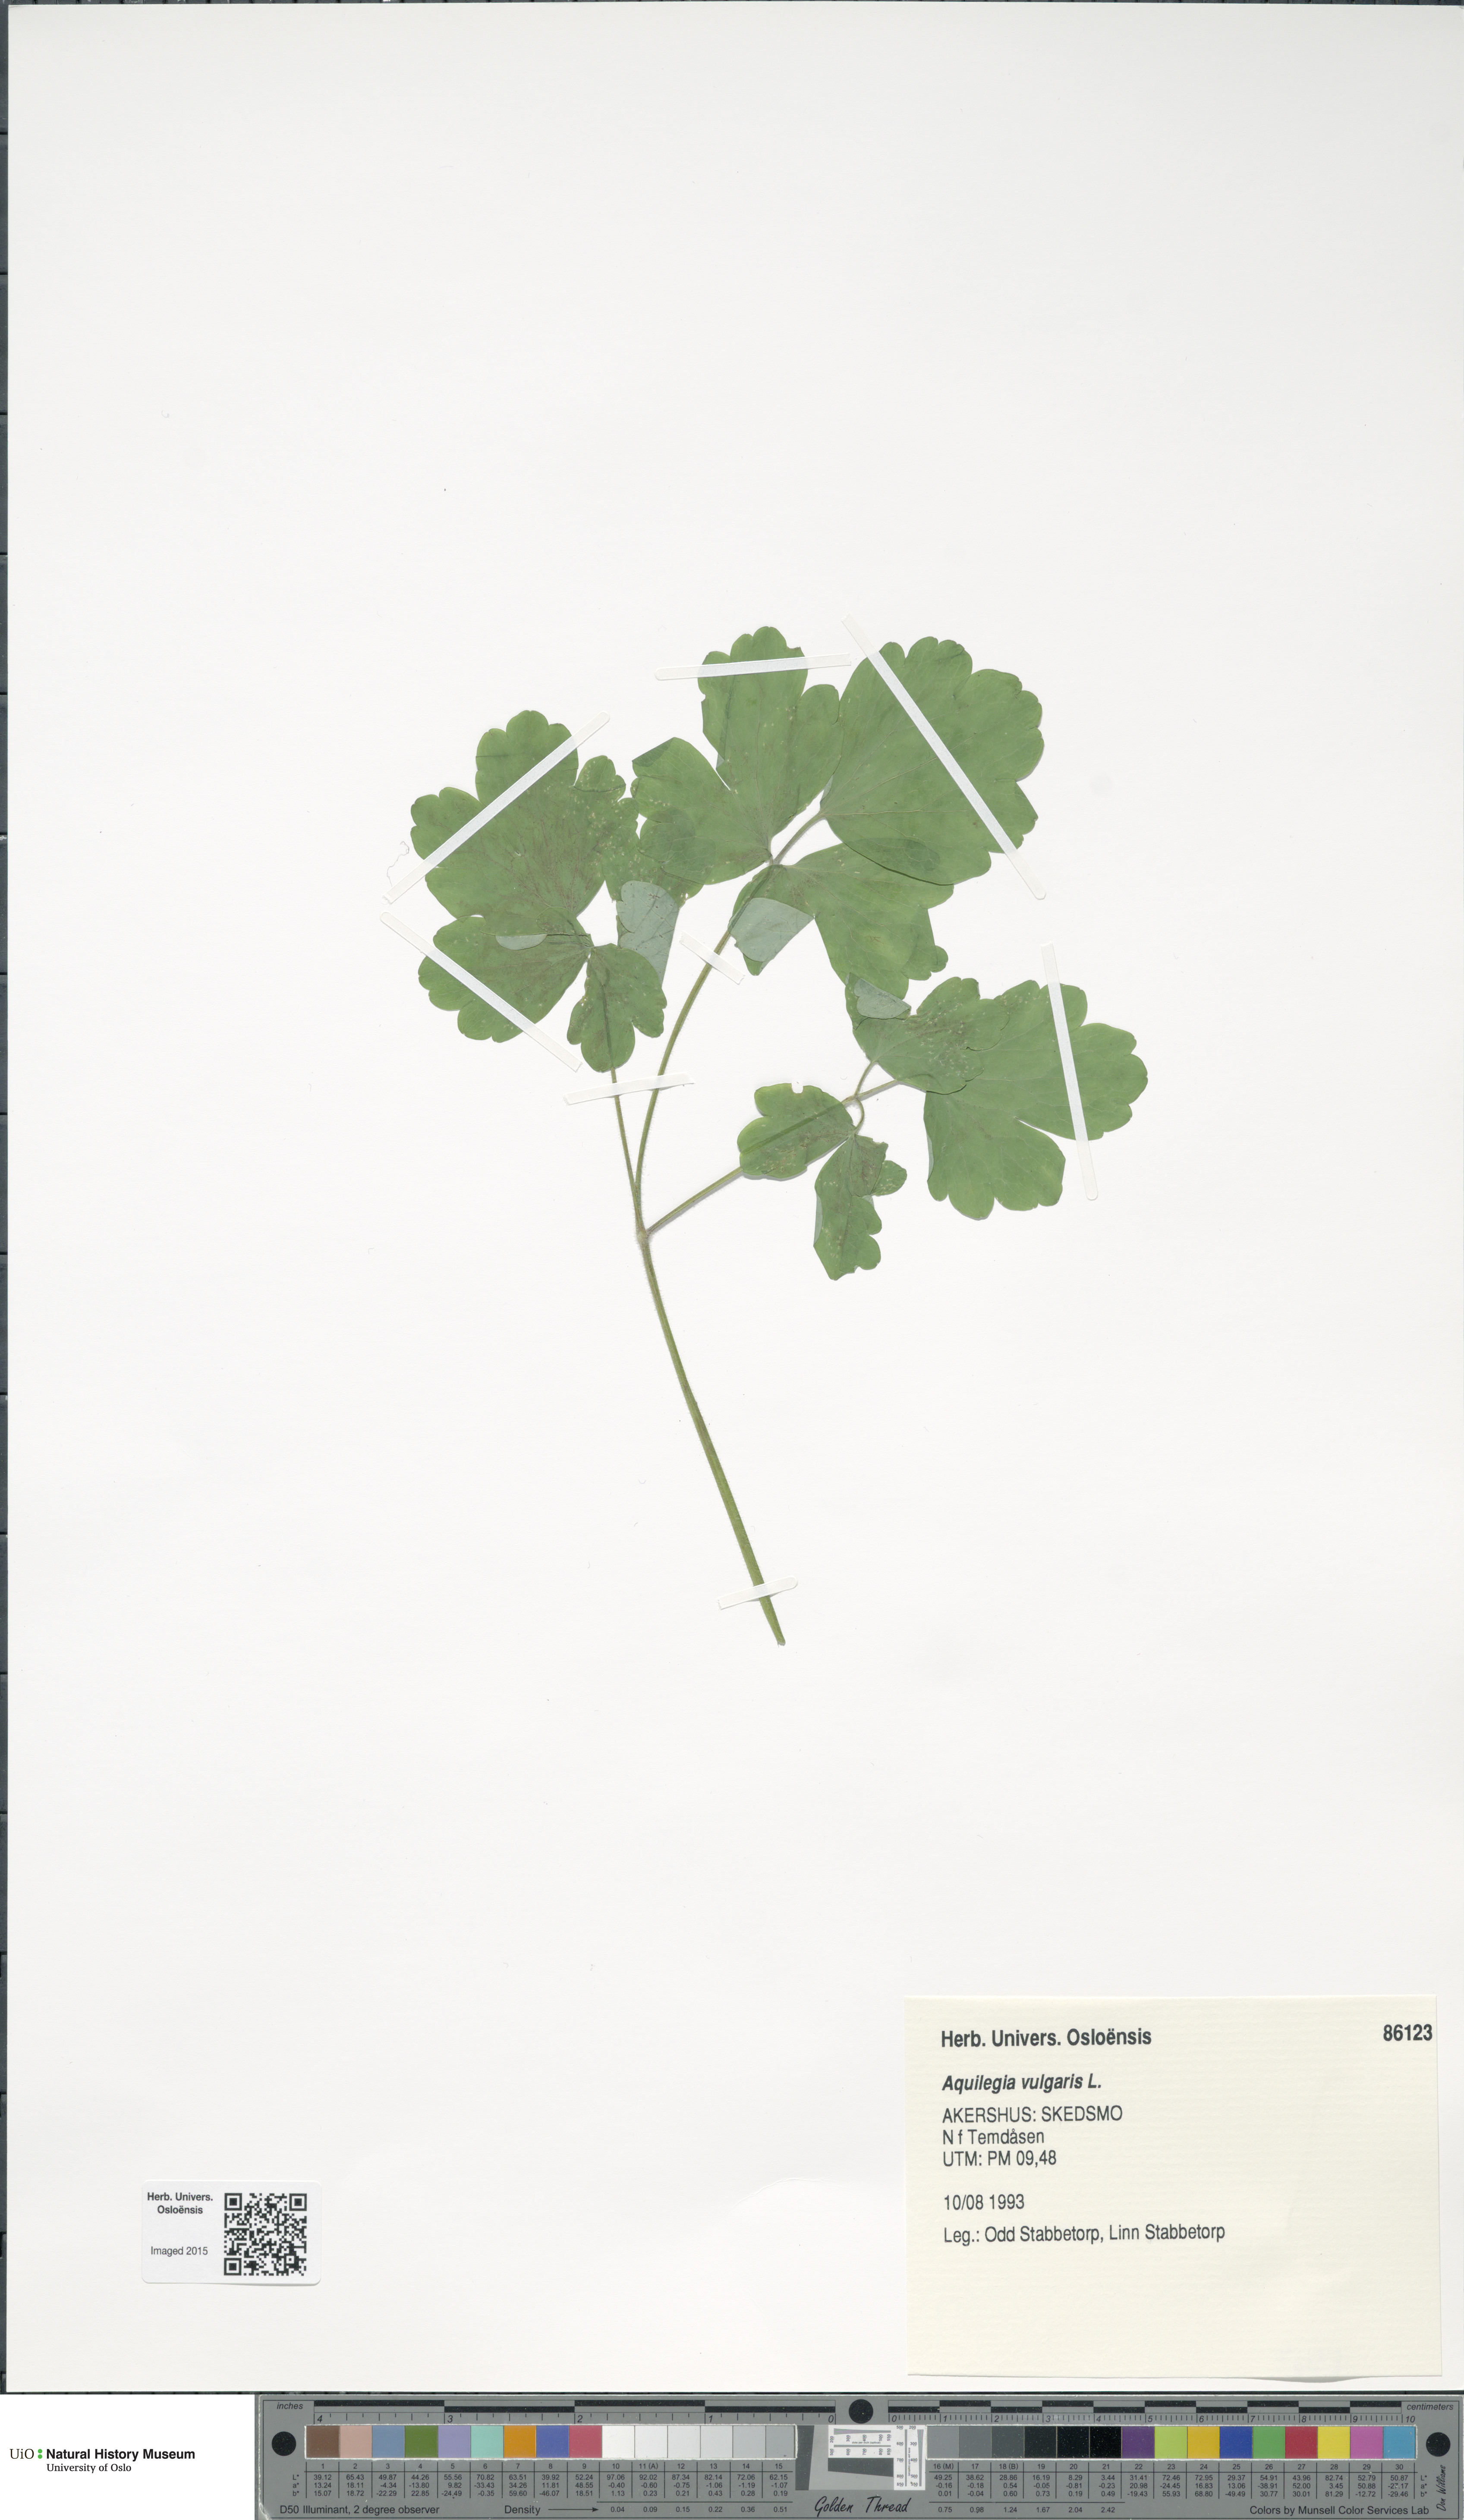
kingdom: Plantae
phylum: Tracheophyta
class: Magnoliopsida
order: Ranunculales
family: Ranunculaceae
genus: Aquilegia
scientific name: Aquilegia vulgaris
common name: Columbine
